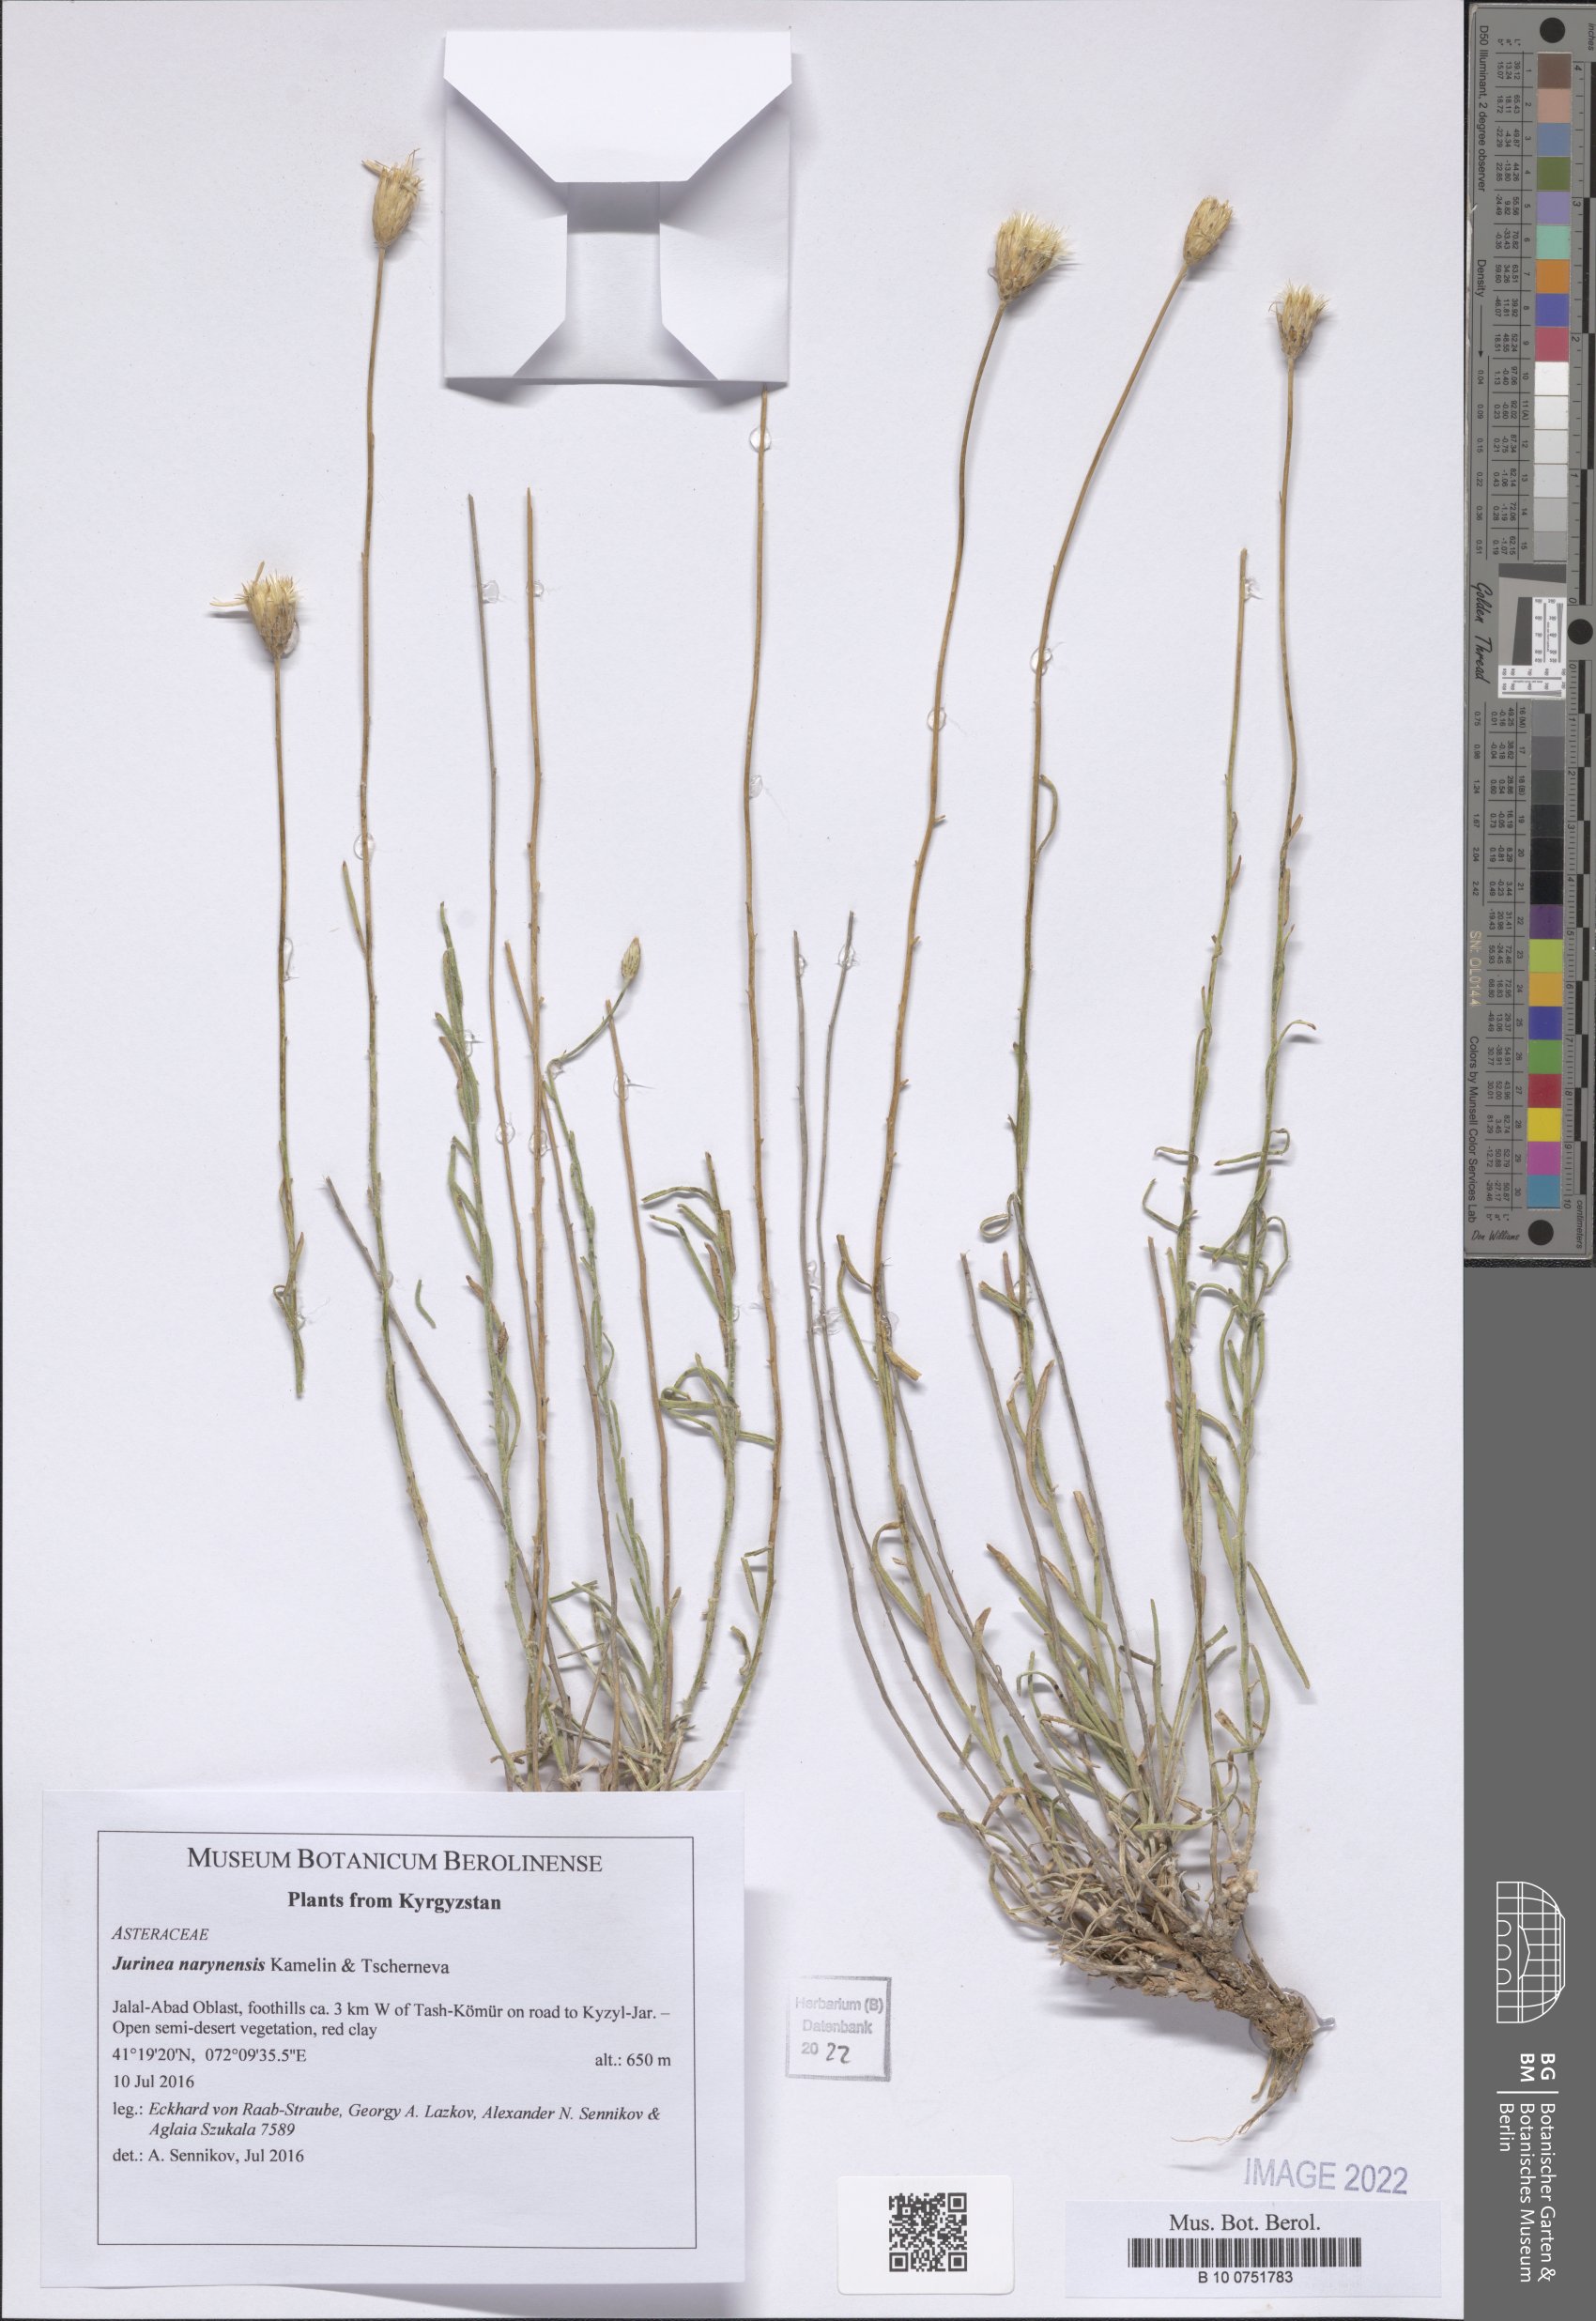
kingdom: Plantae
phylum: Tracheophyta
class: Magnoliopsida
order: Asterales
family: Asteraceae
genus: Jurinea
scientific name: Jurinea narynensis
